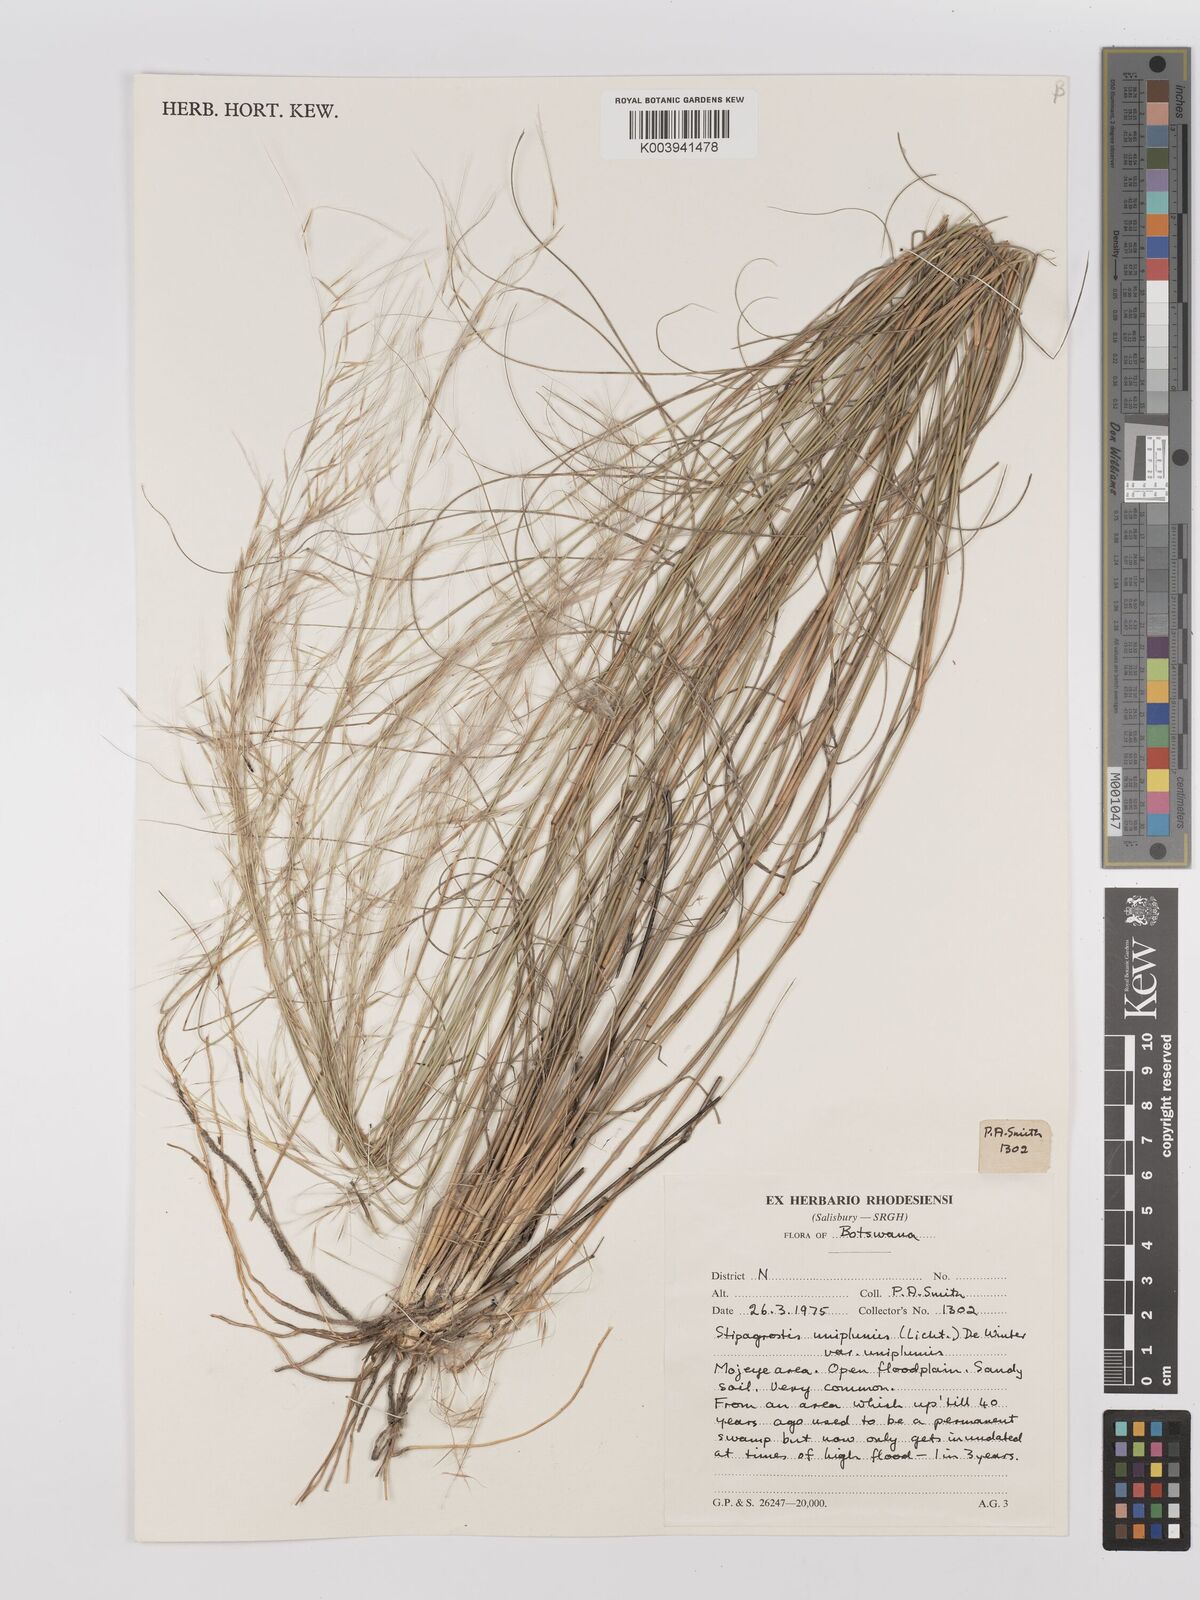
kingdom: Plantae
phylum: Tracheophyta
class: Liliopsida
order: Poales
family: Poaceae
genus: Stipagrostis
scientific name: Stipagrostis uniplumis
